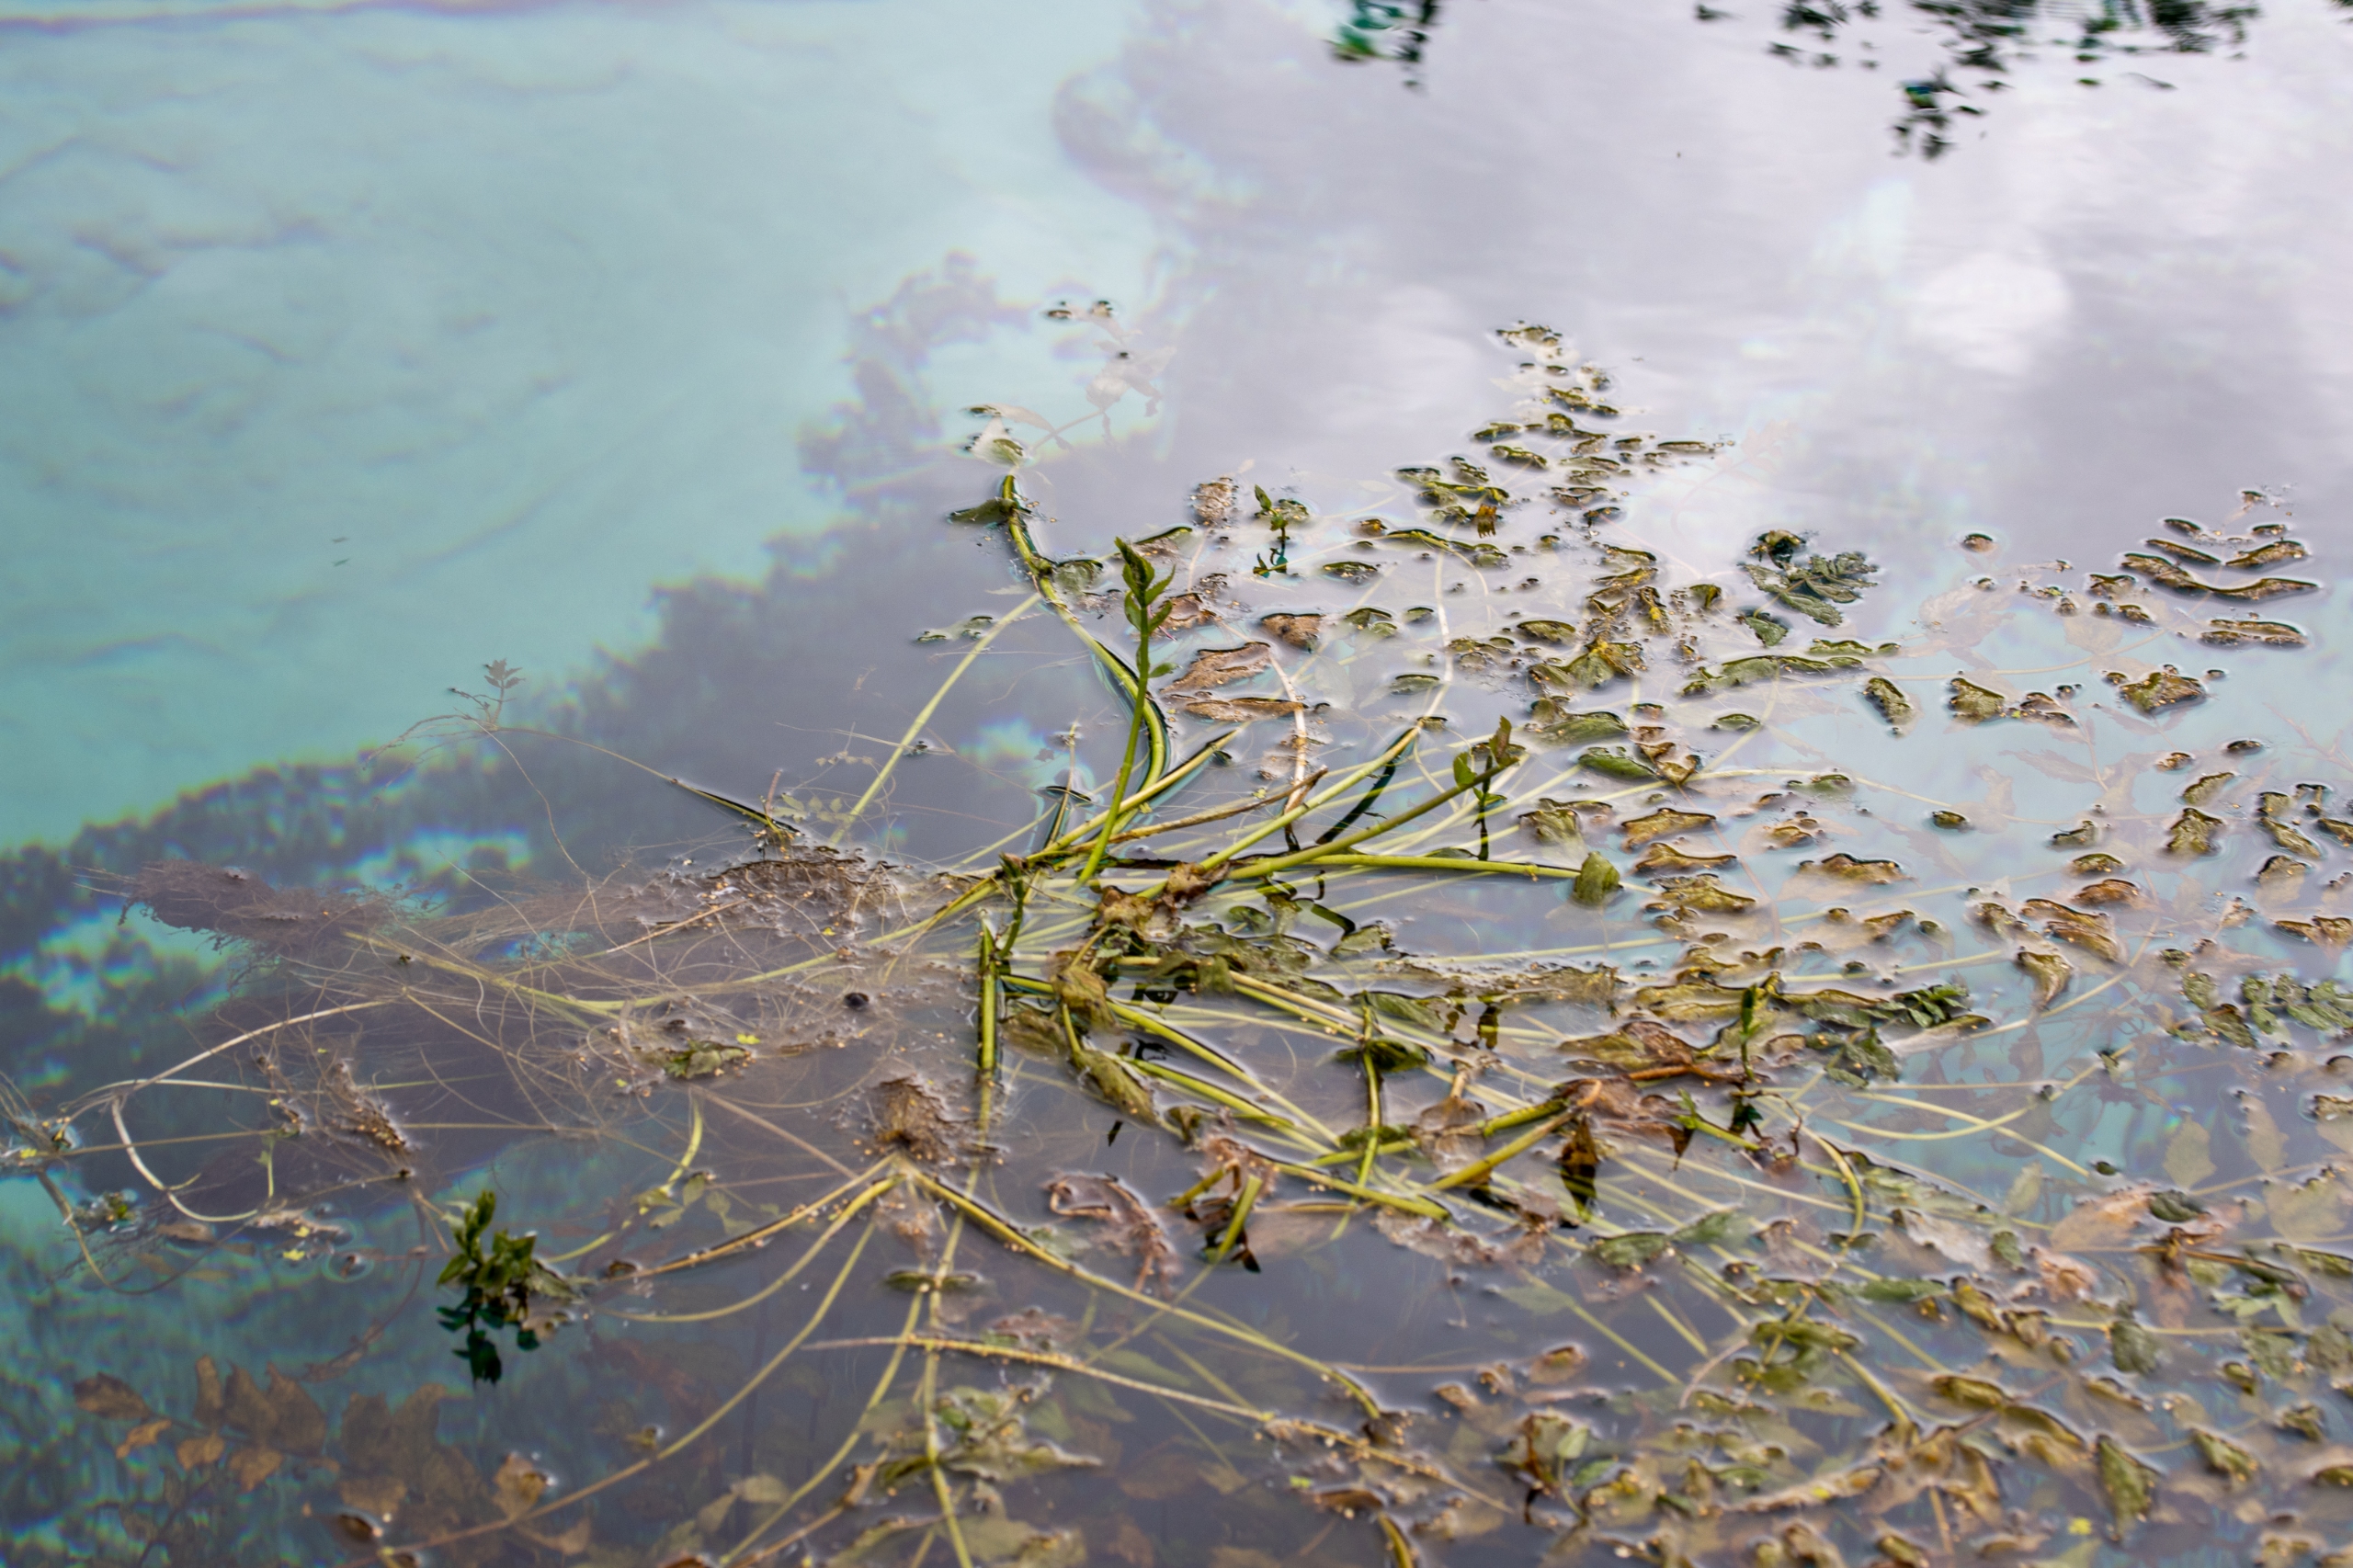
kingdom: Plantae
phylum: Tracheophyta
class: Magnoliopsida
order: Apiales
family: Apiaceae
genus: Berula
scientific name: Berula erecta
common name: Sideskærm
